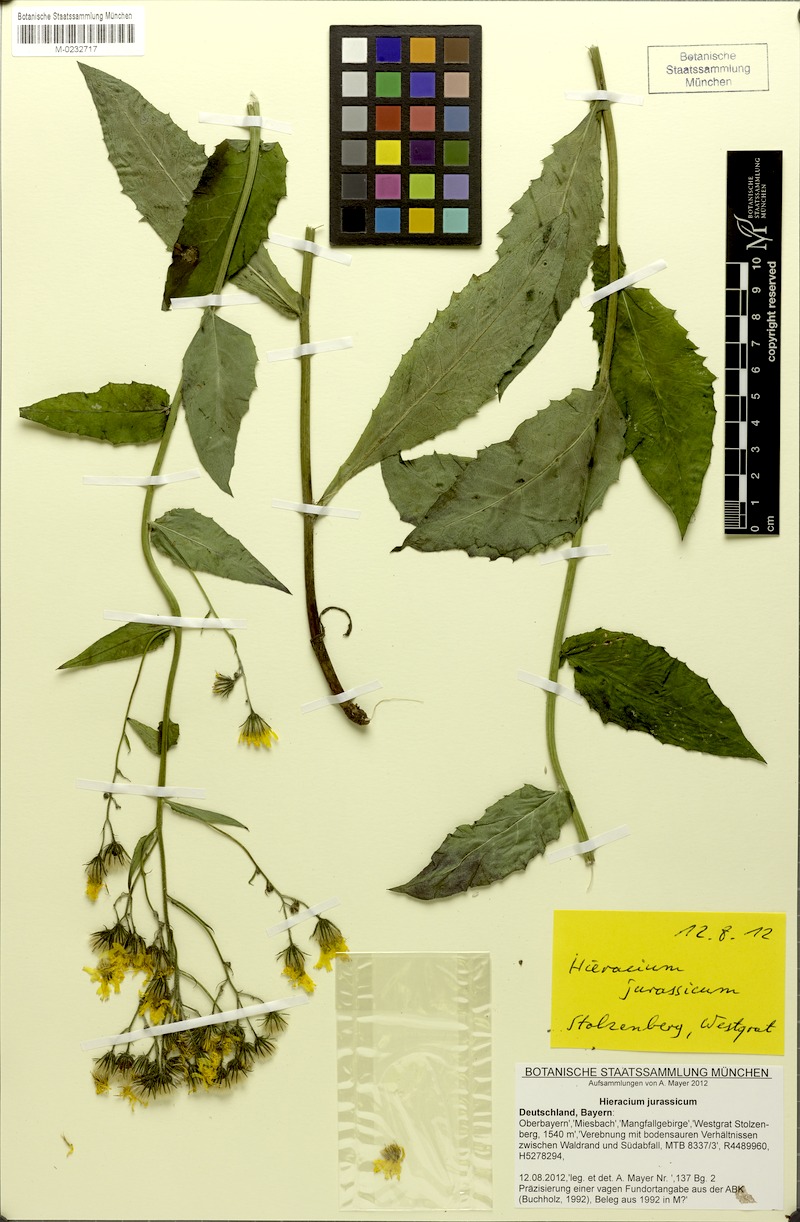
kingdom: Plantae
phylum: Tracheophyta
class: Magnoliopsida
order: Asterales
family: Asteraceae
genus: Hieracium
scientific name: Hieracium jurassicum
